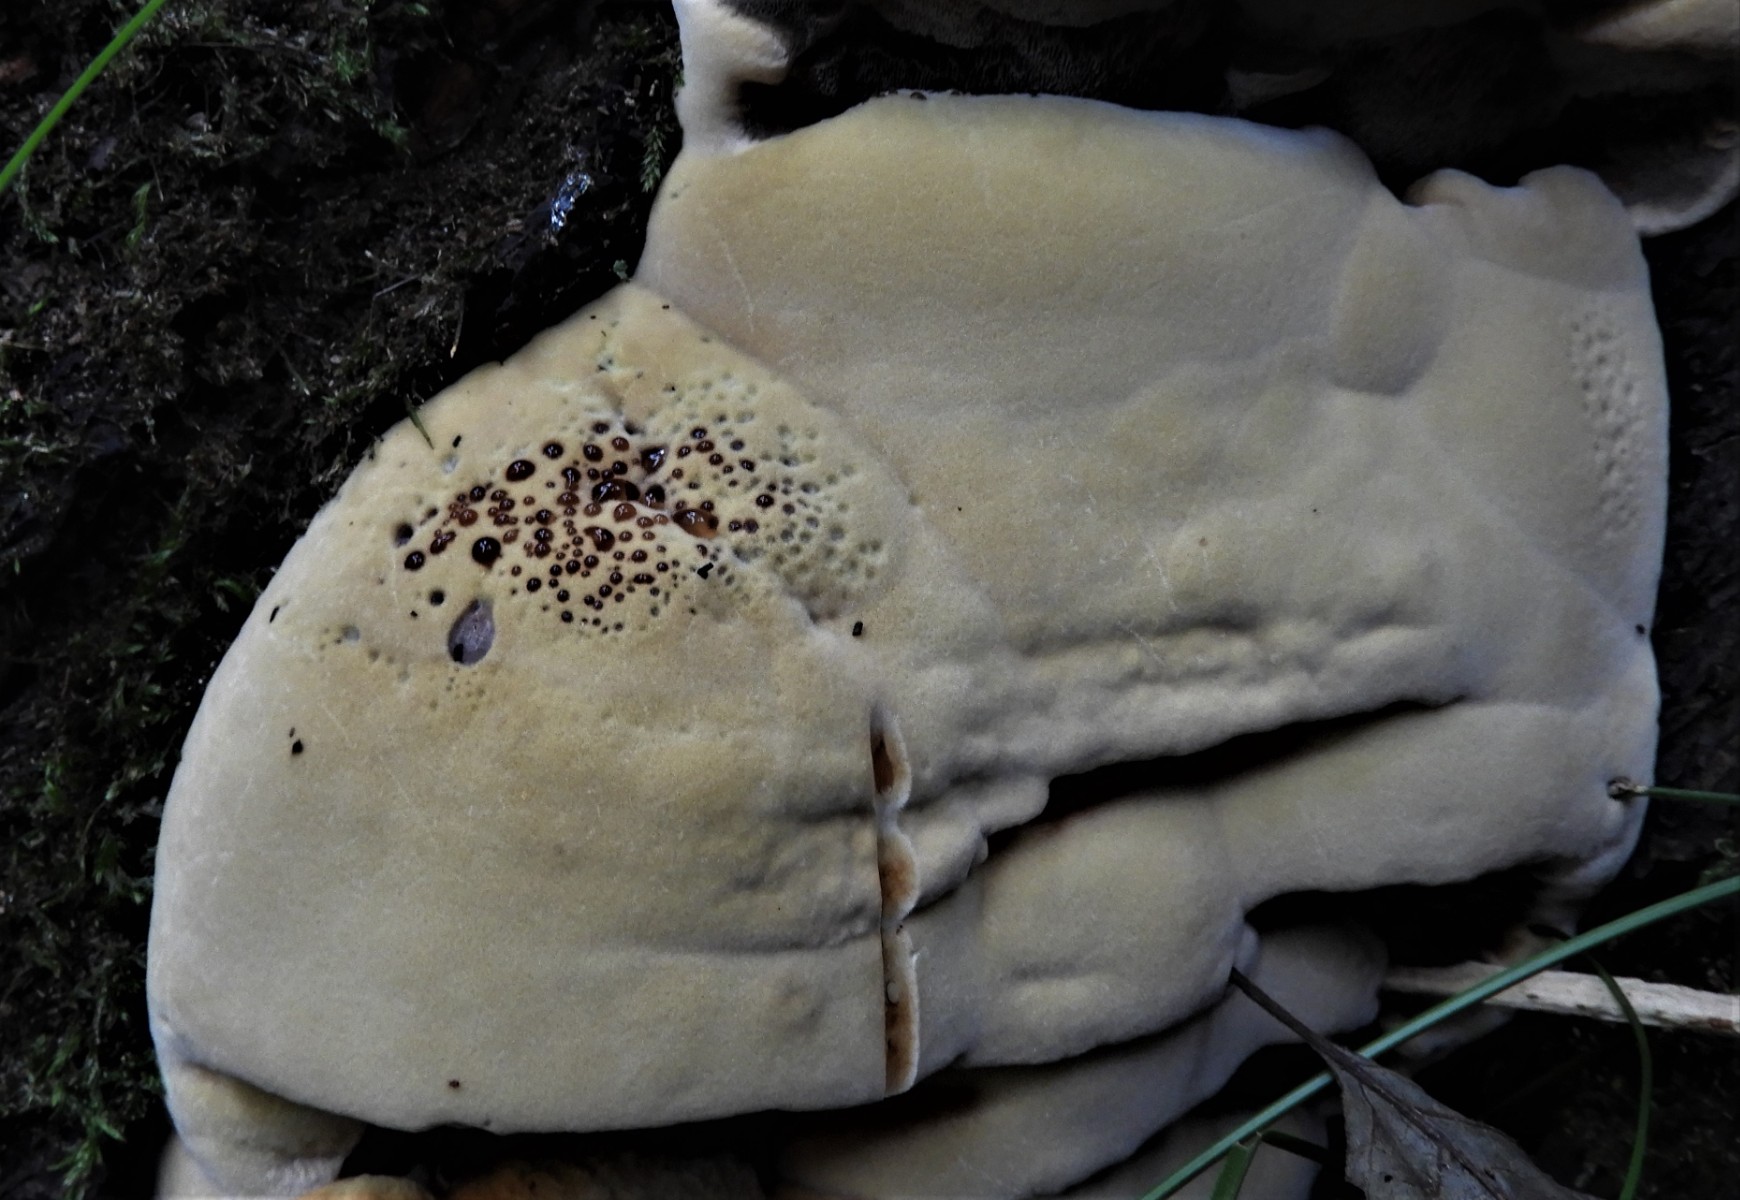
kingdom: Fungi
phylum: Basidiomycota
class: Agaricomycetes
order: Hymenochaetales
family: Hymenochaetaceae
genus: Xanthoporia
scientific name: Xanthoporia radiata
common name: elle-spejlporesvamp
